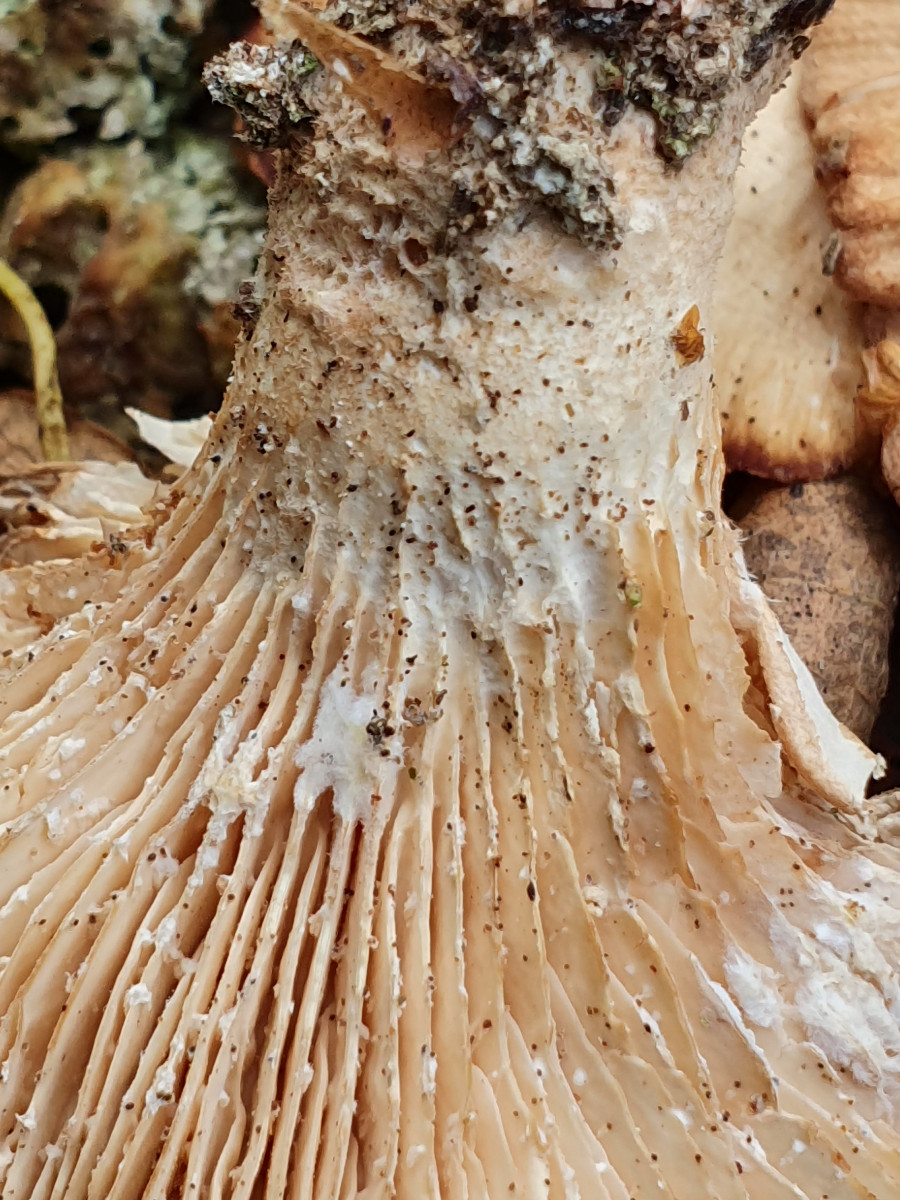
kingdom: Fungi
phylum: Basidiomycota
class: Agaricomycetes
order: Polyporales
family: Panaceae
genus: Panus
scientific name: Panus conchatus
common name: filtstokket læderhat
